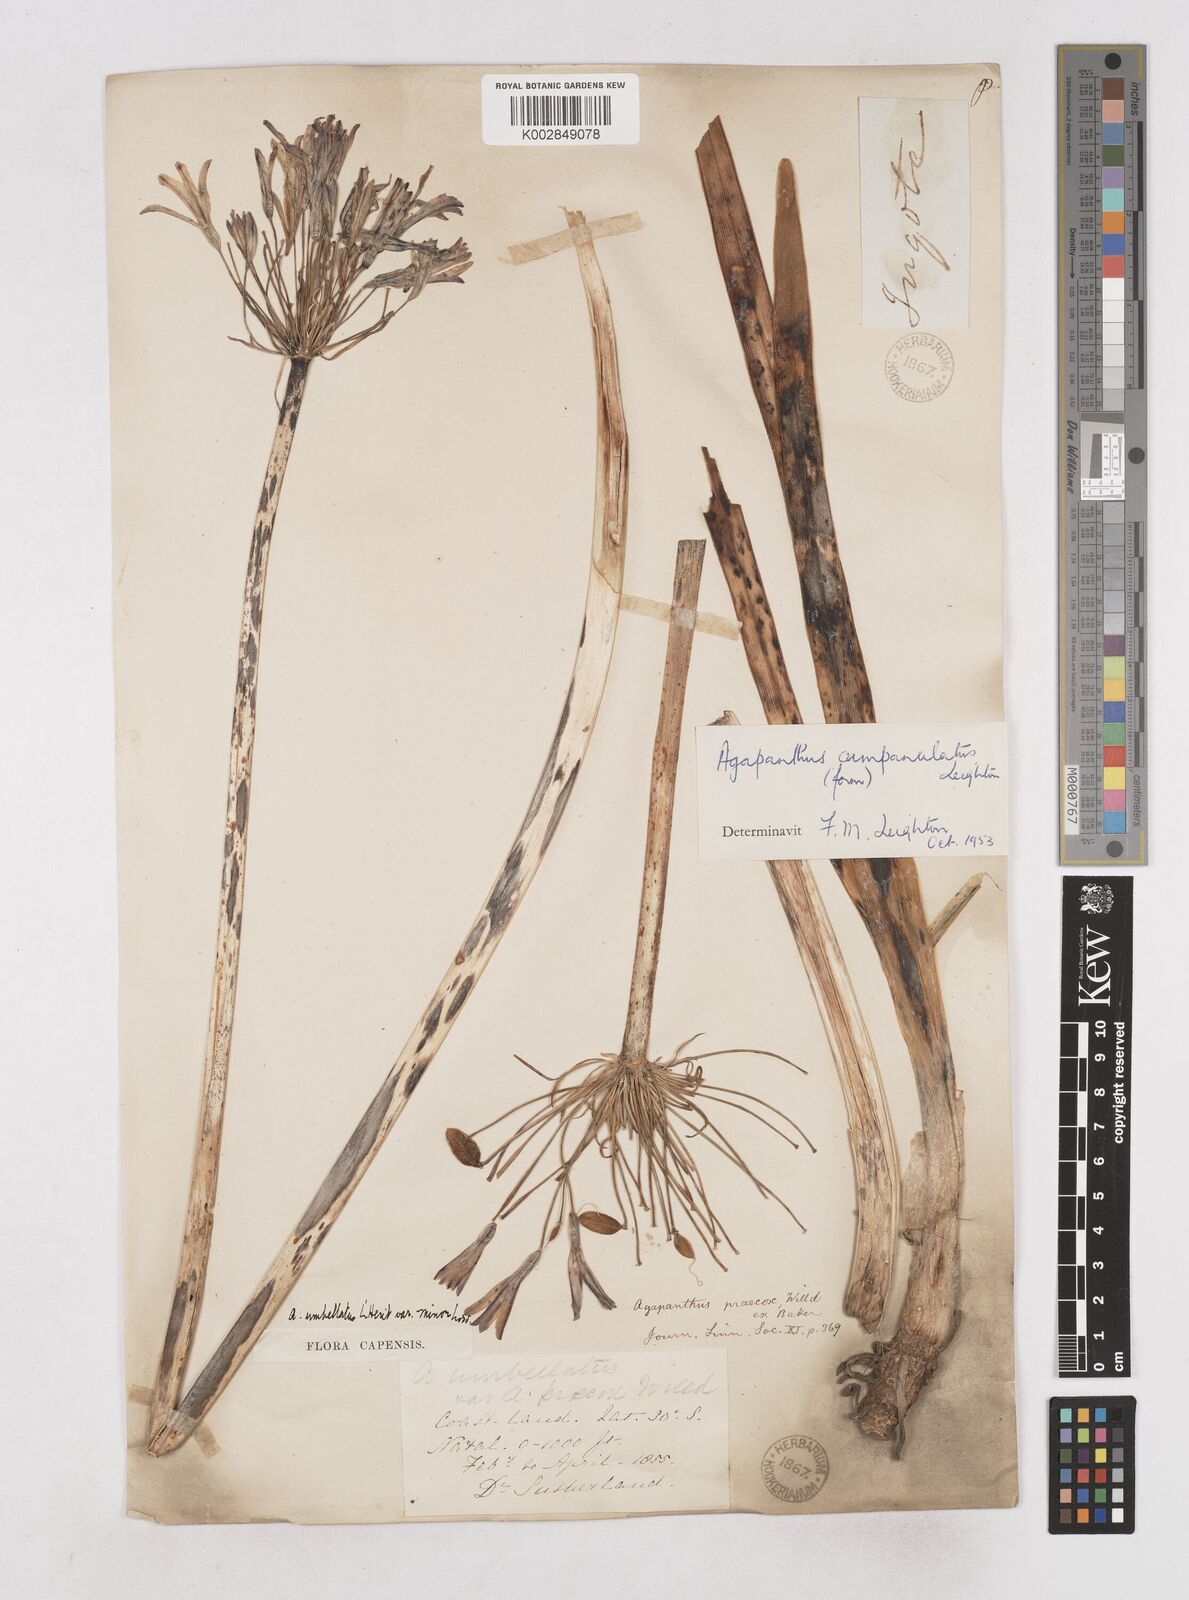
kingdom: Plantae
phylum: Tracheophyta
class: Liliopsida
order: Asparagales
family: Amaryllidaceae
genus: Agapanthus
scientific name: Agapanthus campanulatus
